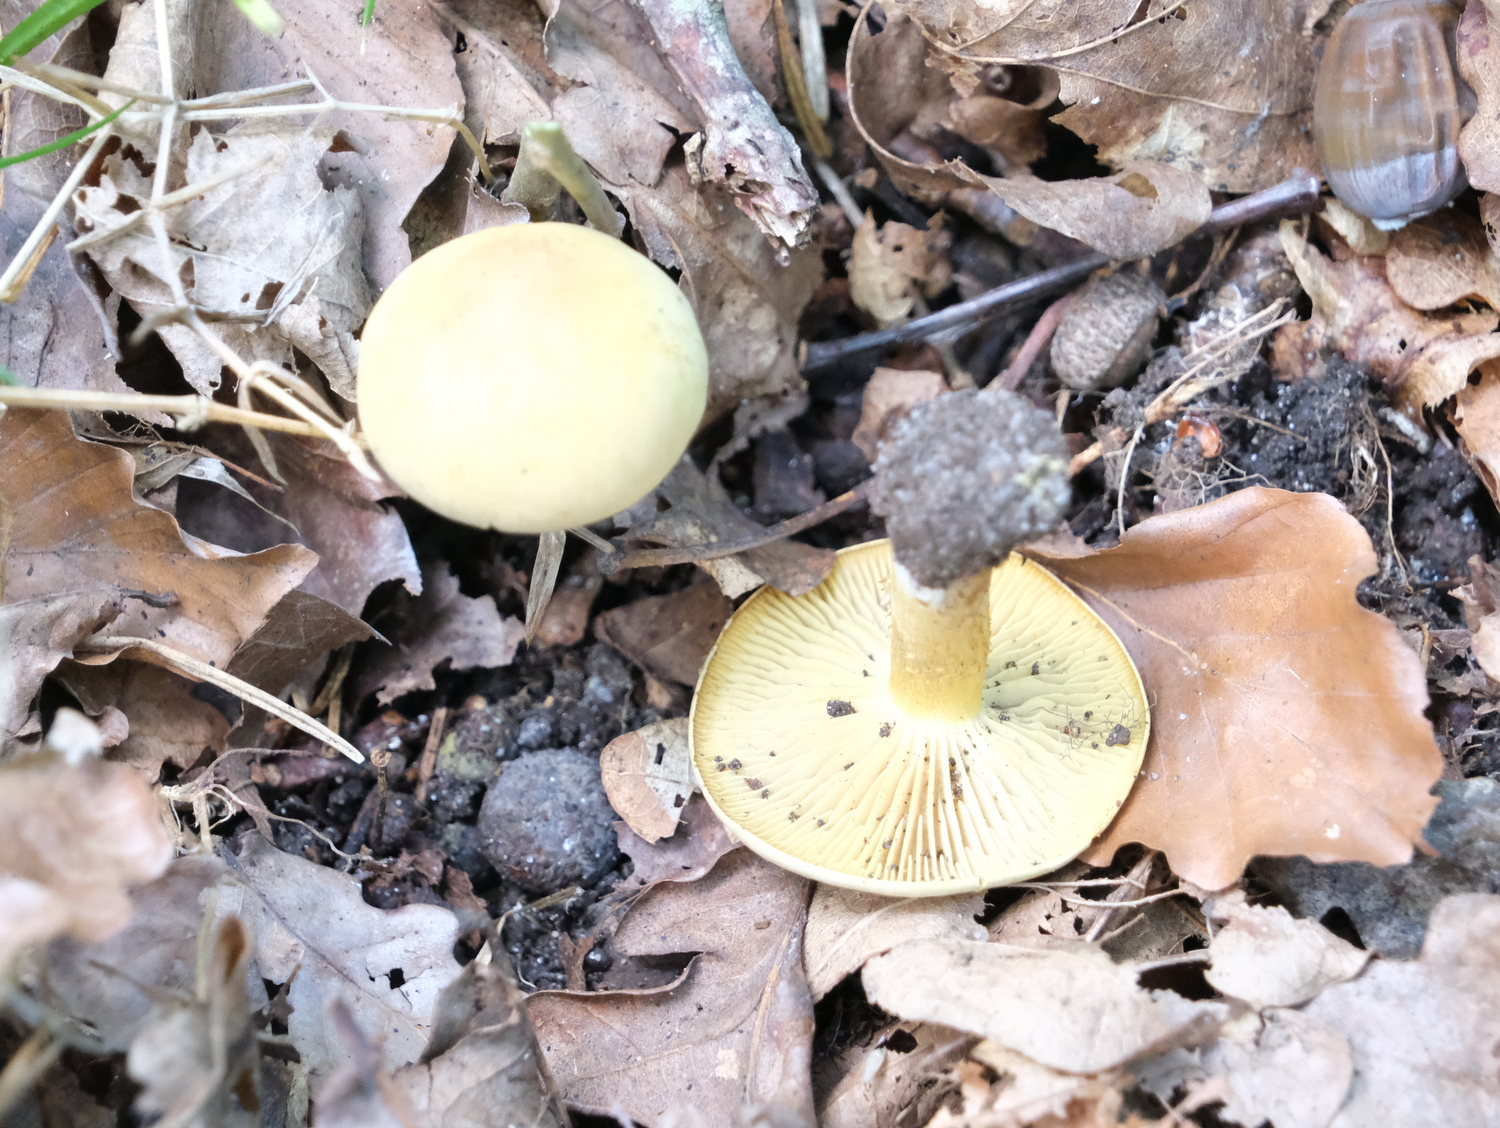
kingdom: Fungi
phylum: Basidiomycota
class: Agaricomycetes
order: Agaricales
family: Tricholomataceae
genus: Tricholoma
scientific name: Tricholoma sulphureum
